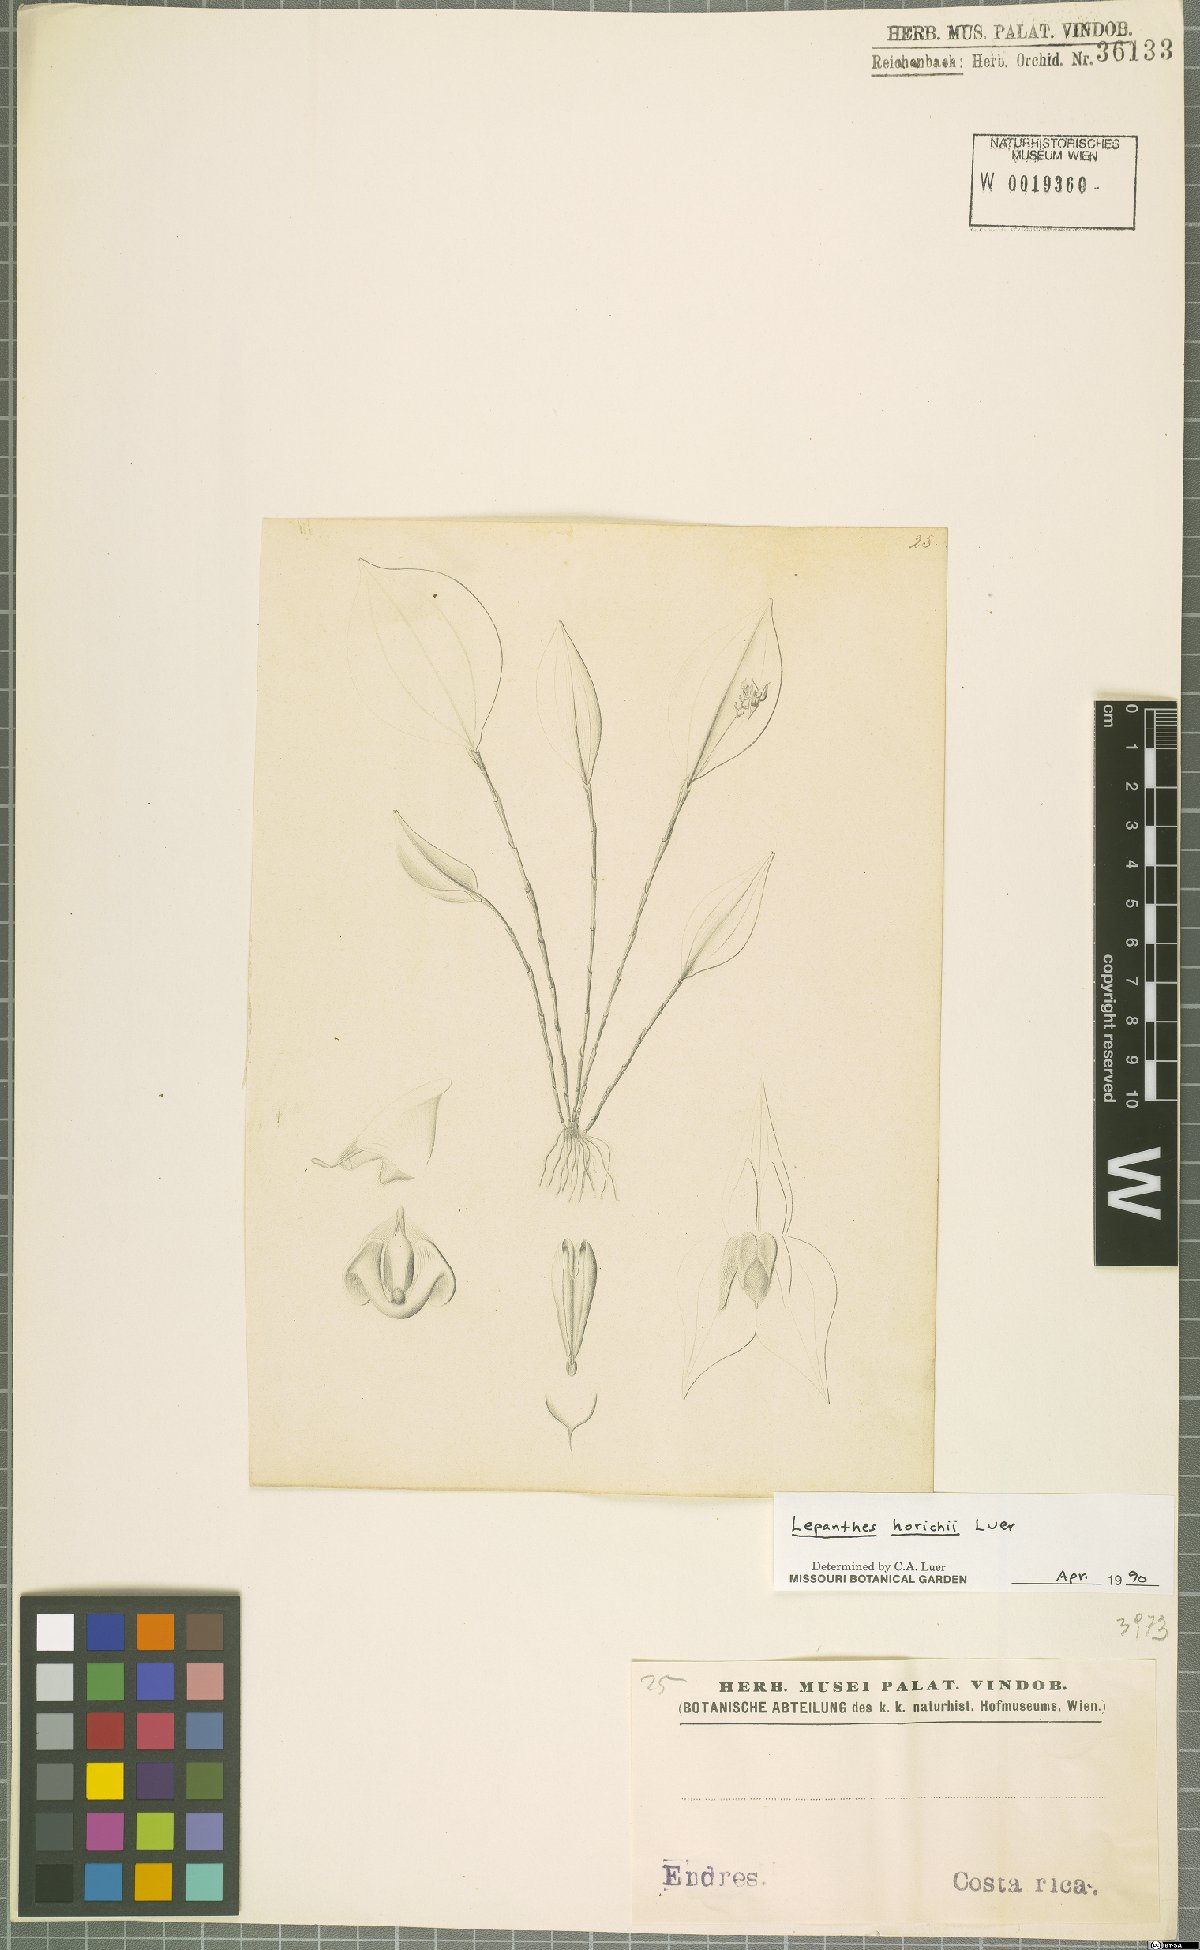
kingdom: Plantae
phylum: Tracheophyta
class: Liliopsida
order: Asparagales
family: Orchidaceae
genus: Lepanthes
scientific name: Lepanthes horichii
